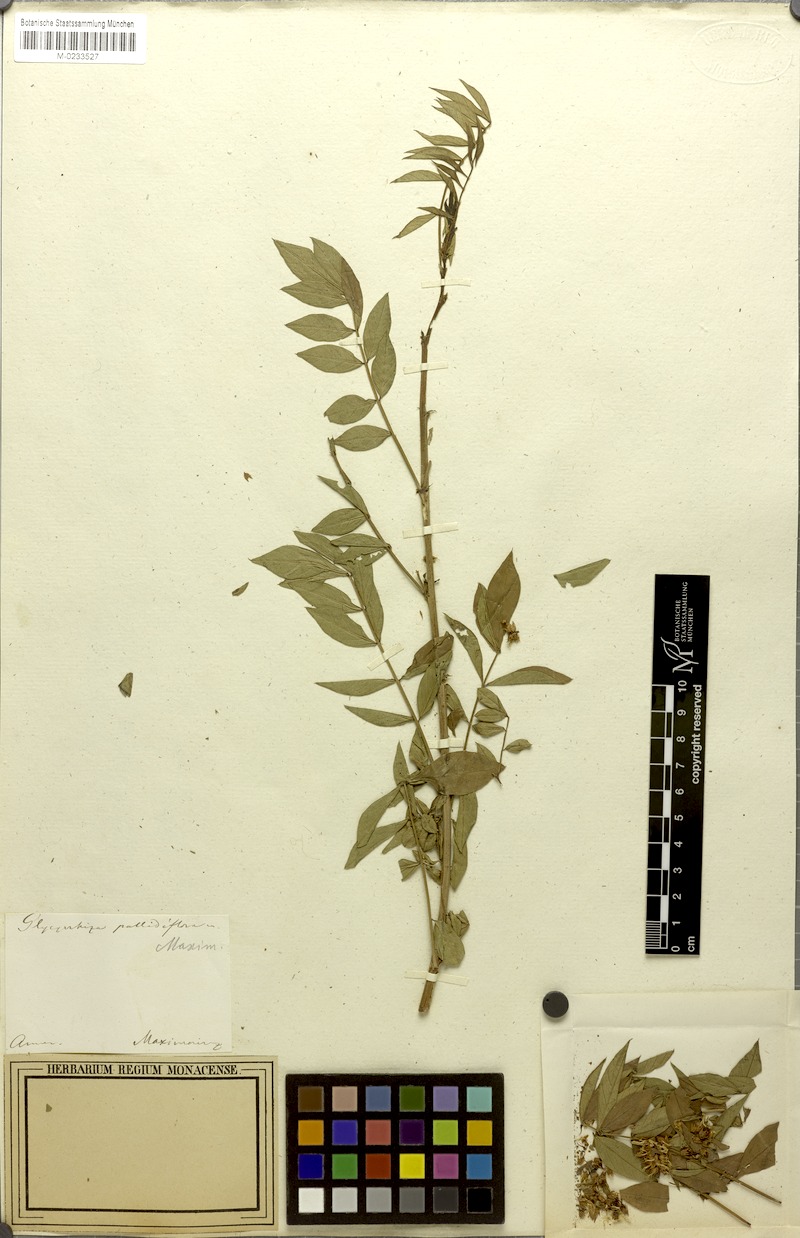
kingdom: Plantae
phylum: Tracheophyta
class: Magnoliopsida
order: Fabales
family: Fabaceae
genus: Glycyrrhiza
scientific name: Glycyrrhiza pallidiflora
